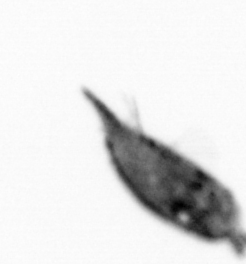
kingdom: Animalia
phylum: Arthropoda
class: Maxillopoda
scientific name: Maxillopoda
